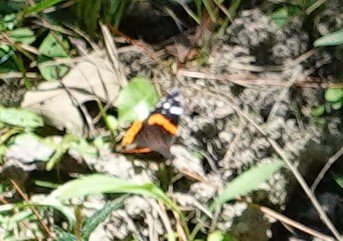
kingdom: Animalia
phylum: Arthropoda
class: Insecta
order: Lepidoptera
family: Nymphalidae
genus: Vanessa
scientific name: Vanessa atalanta
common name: Red Admiral
